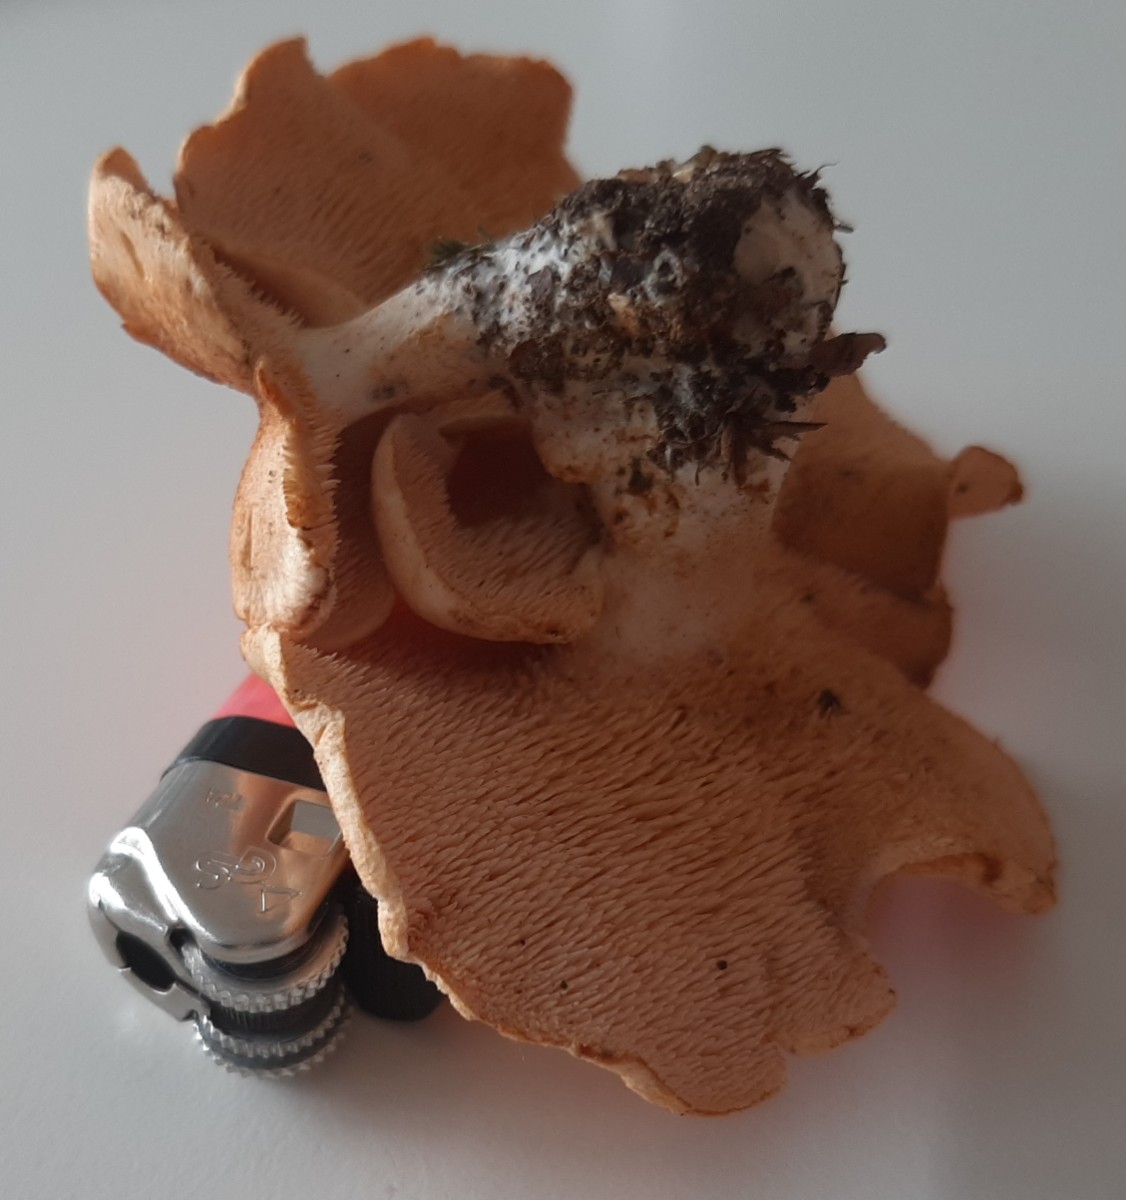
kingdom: Fungi
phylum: Basidiomycota
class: Agaricomycetes
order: Cantharellales
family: Hydnaceae
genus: Hydnum
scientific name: Hydnum rufescens
